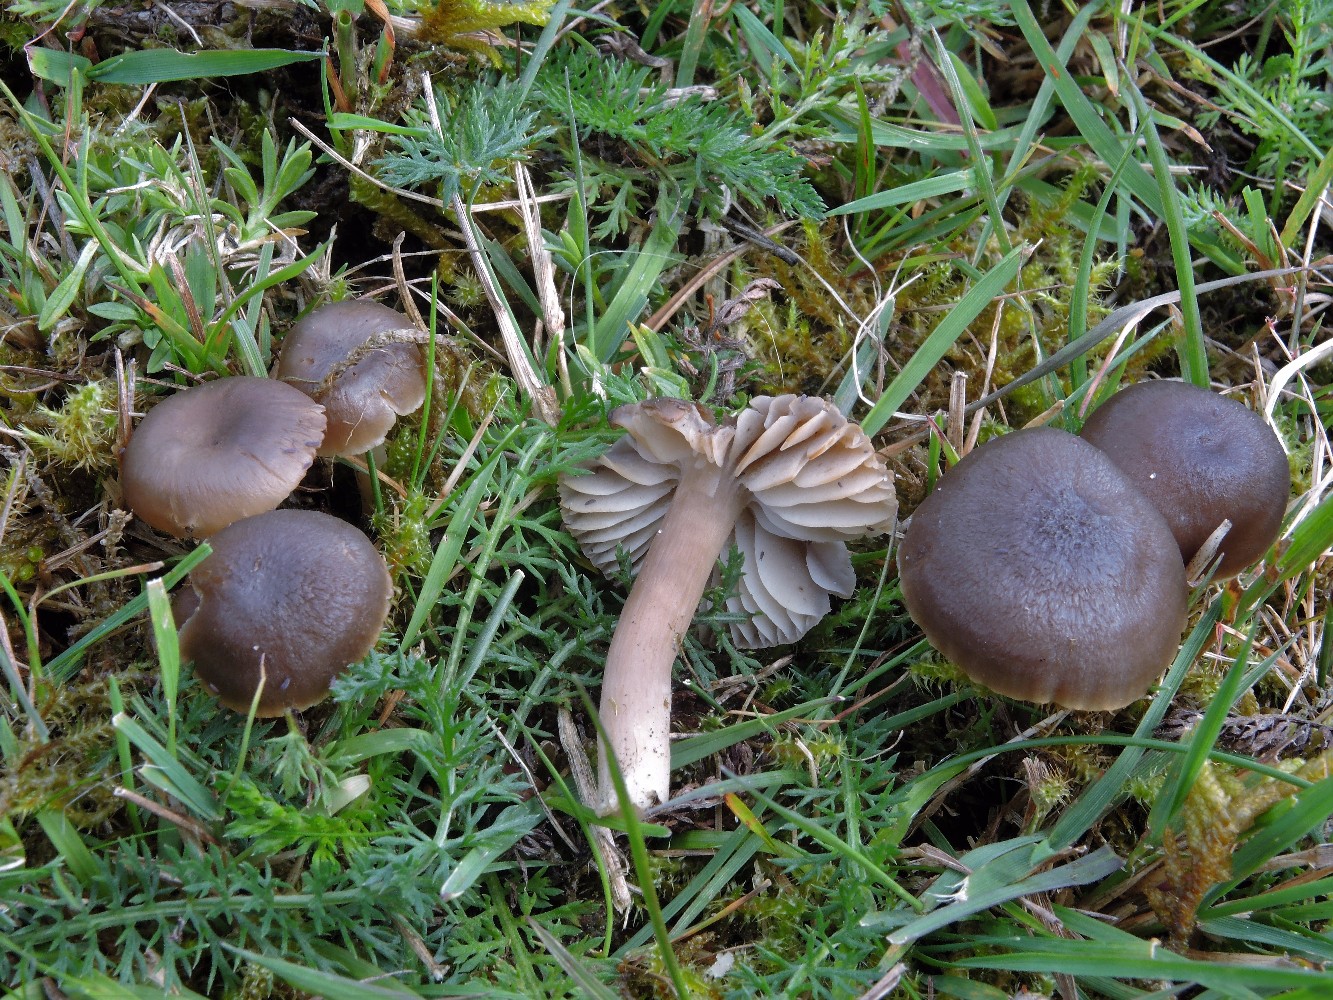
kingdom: Fungi
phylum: Basidiomycota
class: Agaricomycetes
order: Agaricales
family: Hygrophoraceae
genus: Neohygrocybe
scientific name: Neohygrocybe nitrata
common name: stinkende vokshat
